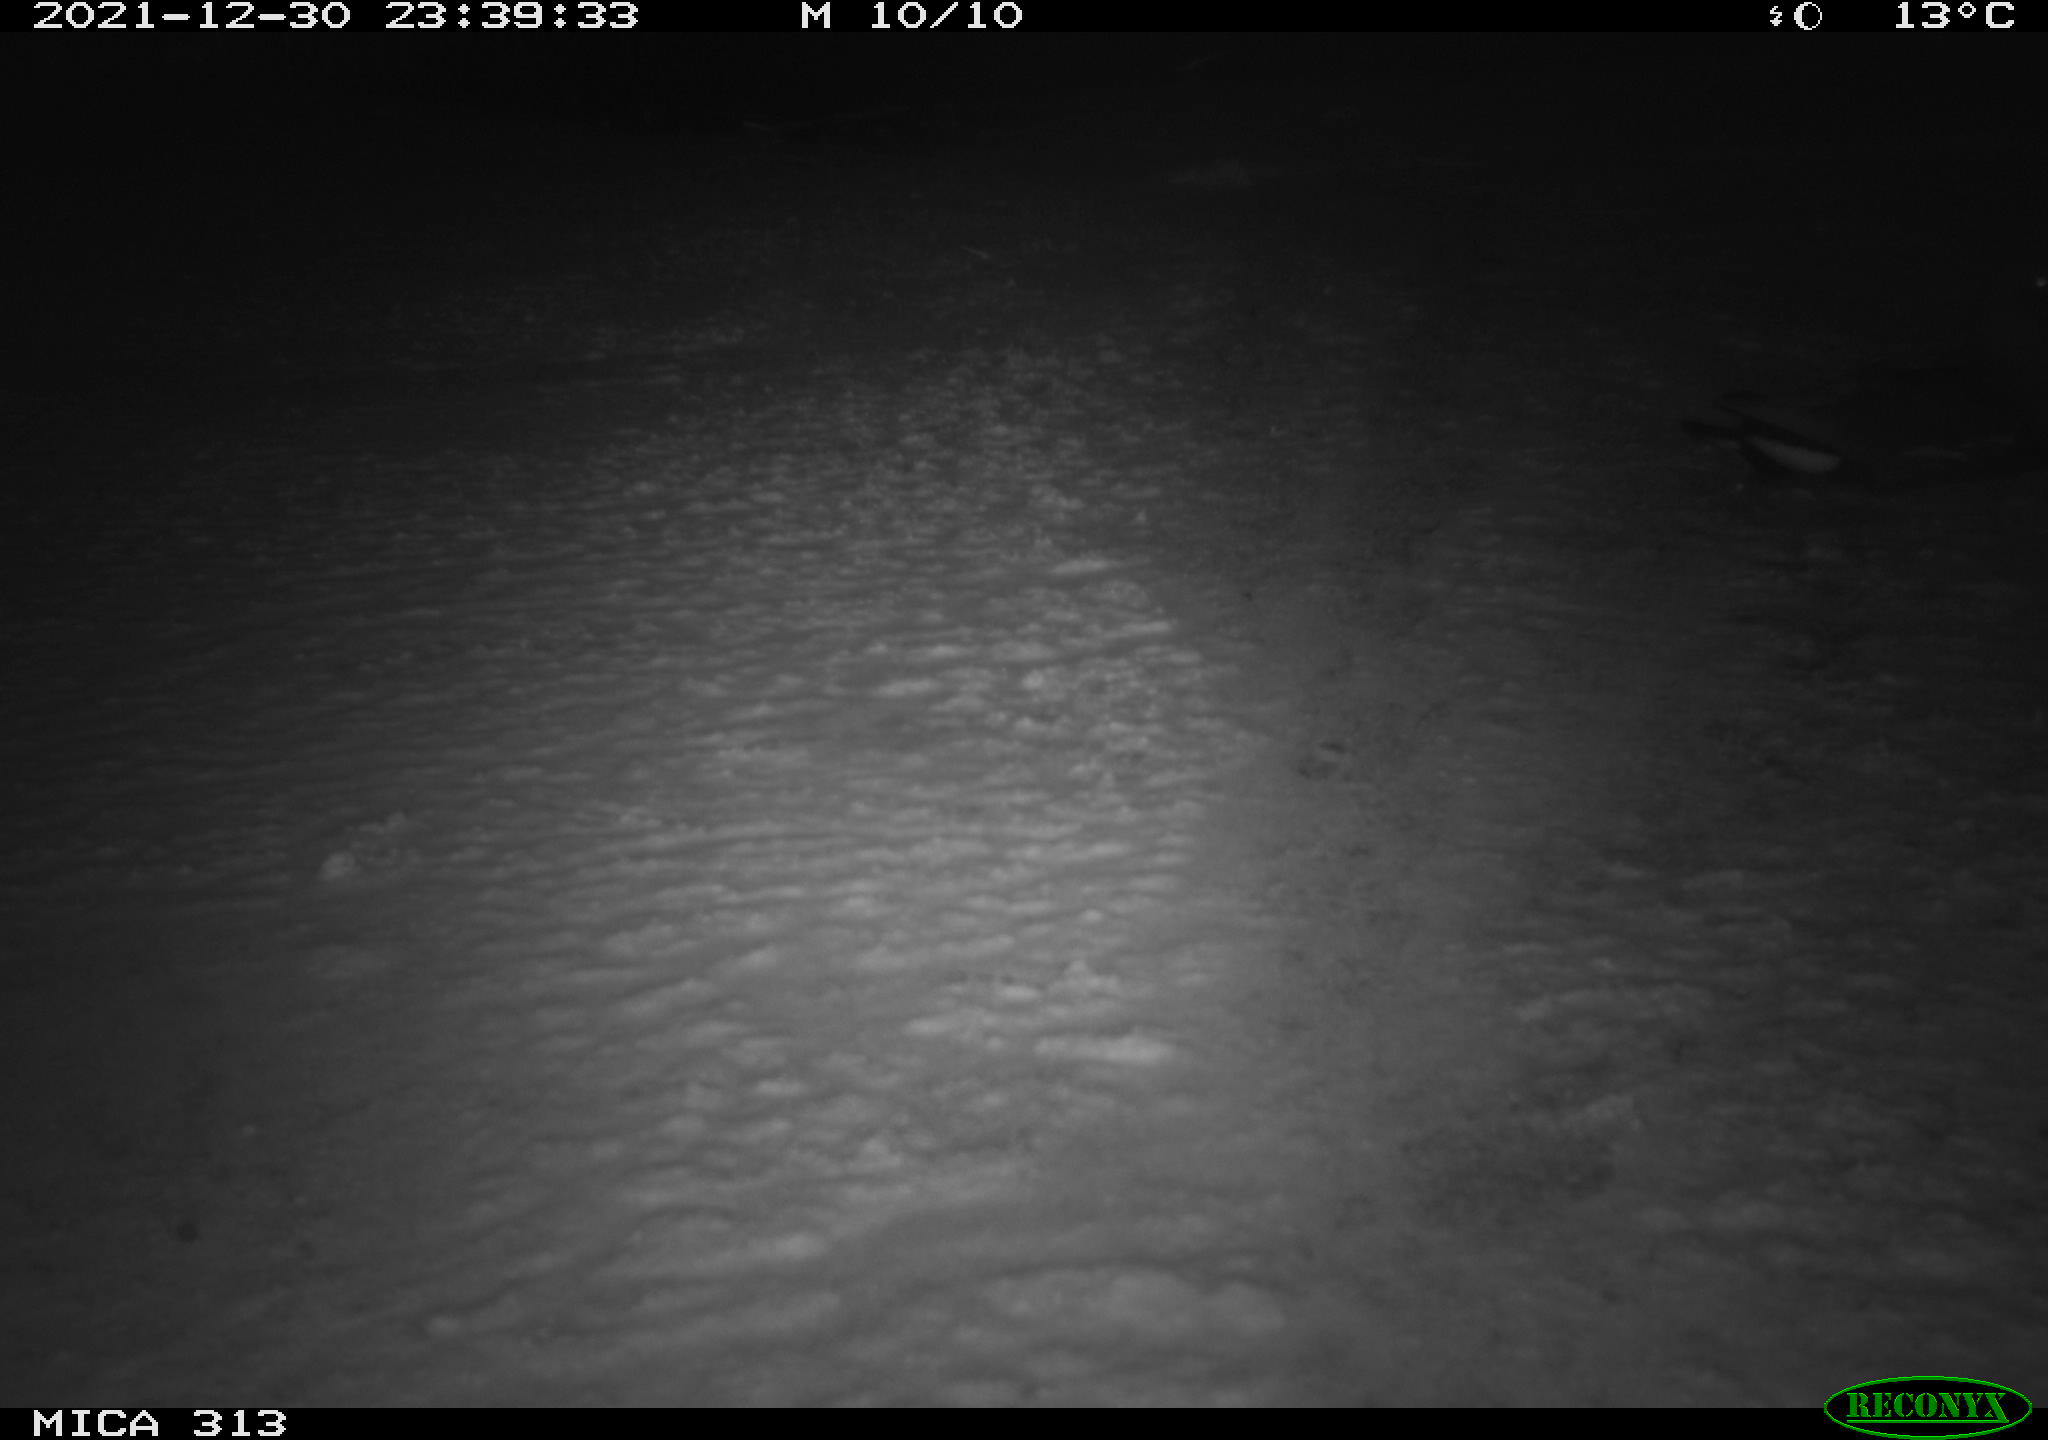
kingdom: Animalia
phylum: Chordata
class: Aves
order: Gruiformes
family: Rallidae
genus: Gallinula
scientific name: Gallinula chloropus
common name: Common moorhen
